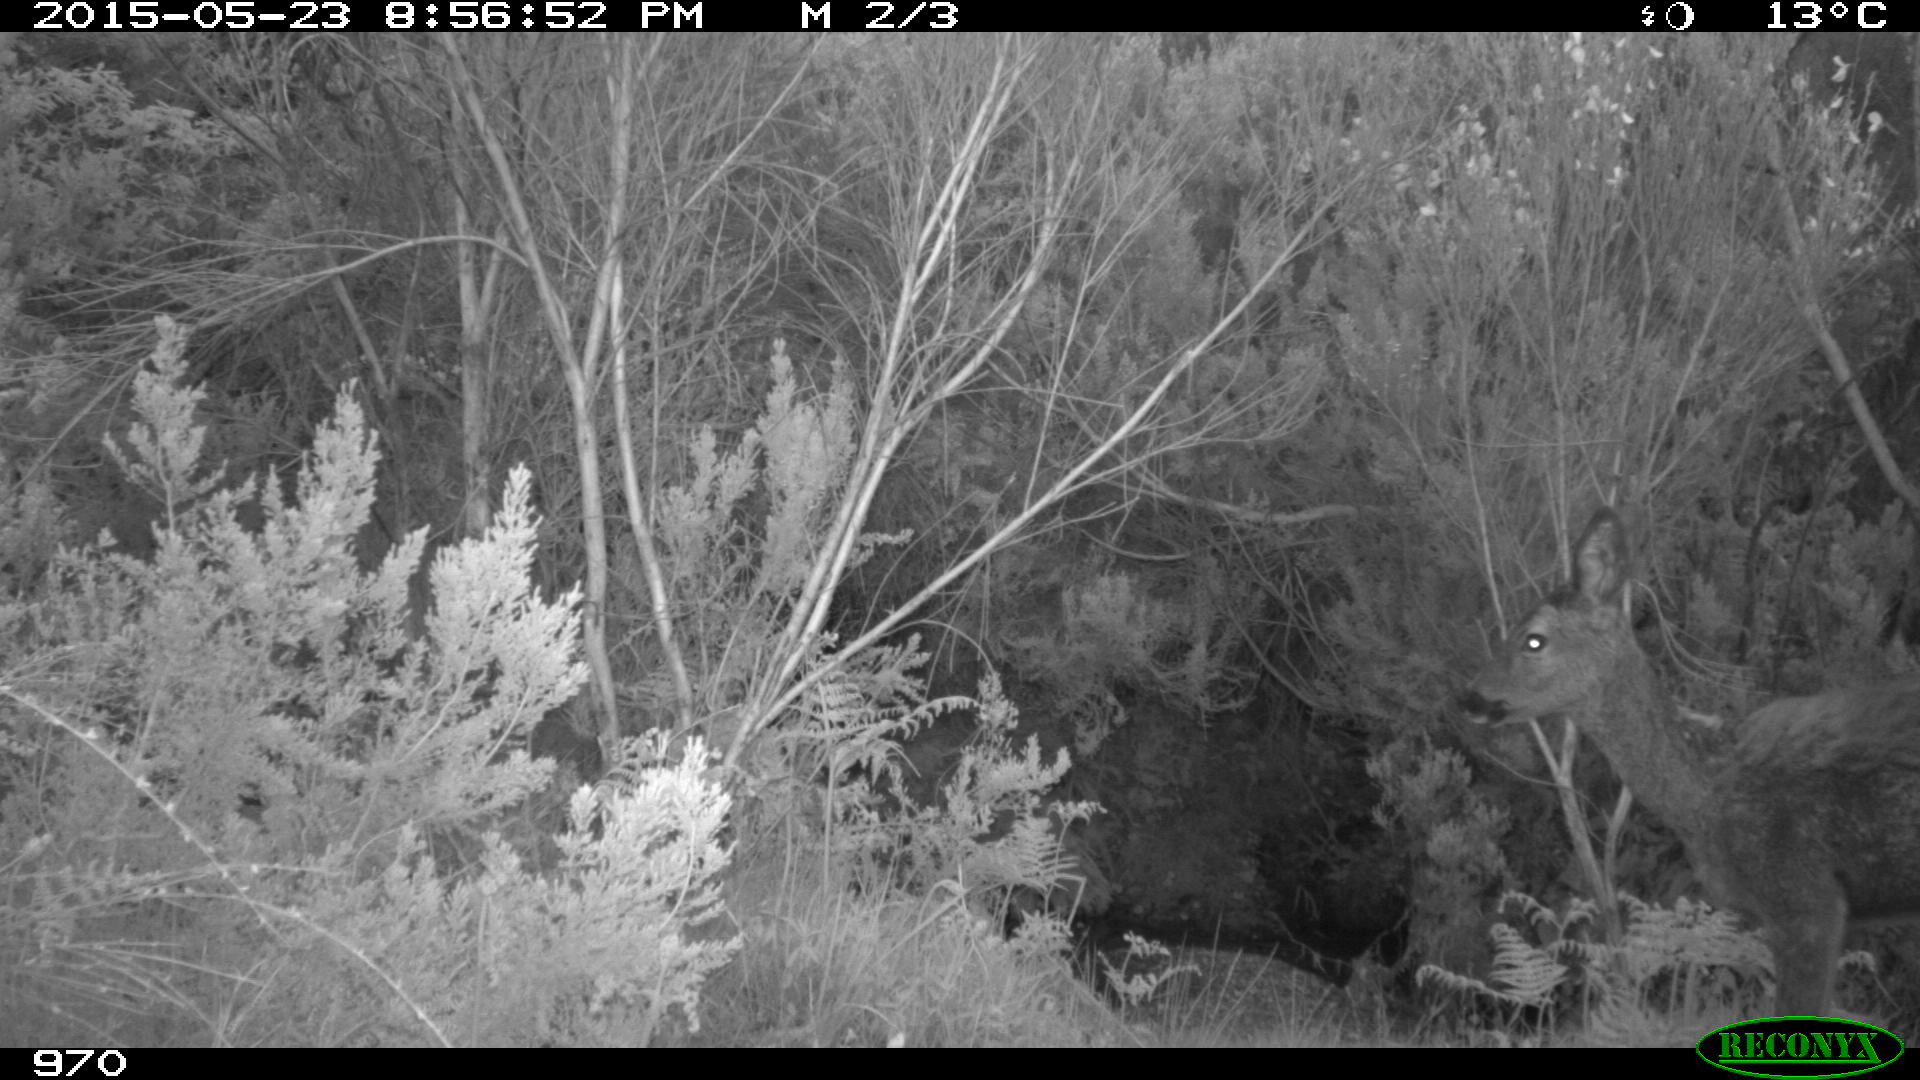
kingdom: Animalia
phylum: Chordata
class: Mammalia
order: Artiodactyla
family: Cervidae
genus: Capreolus
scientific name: Capreolus capreolus
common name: Western roe deer
